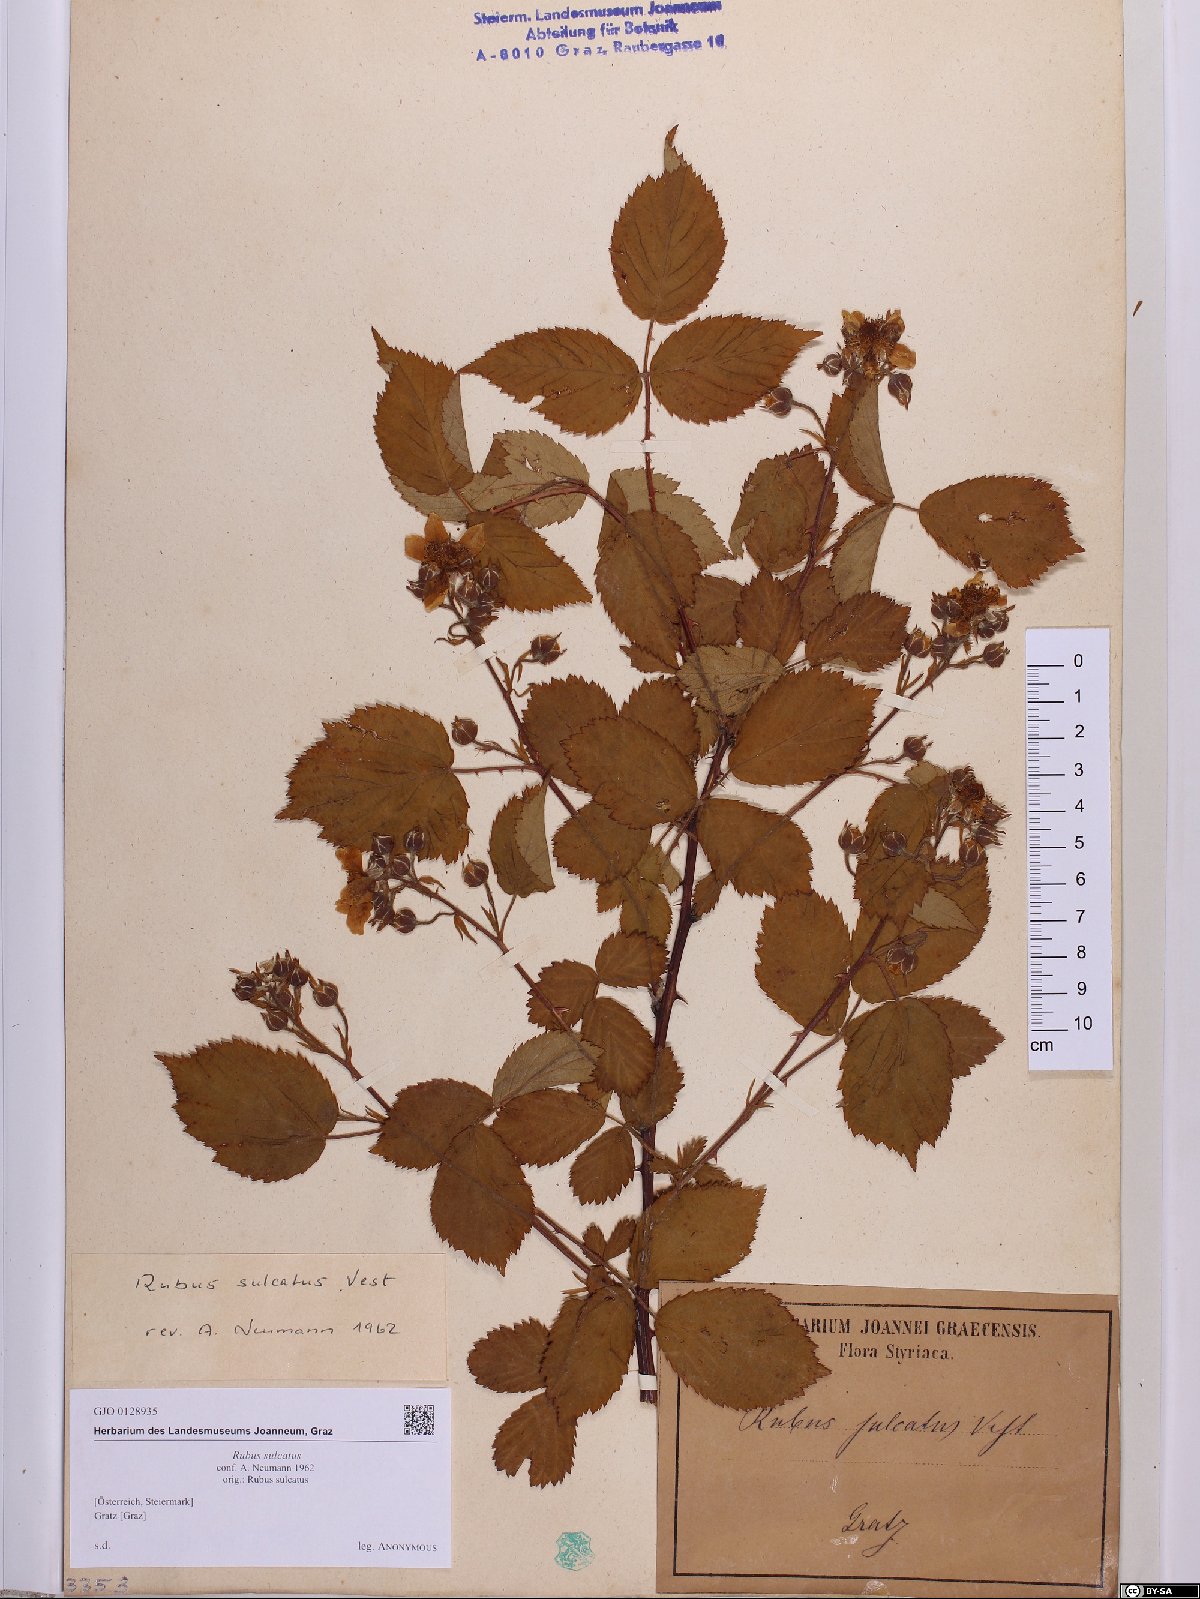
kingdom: Plantae
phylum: Tracheophyta
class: Magnoliopsida
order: Rosales
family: Rosaceae
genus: Rubus
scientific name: Rubus sulcatus
